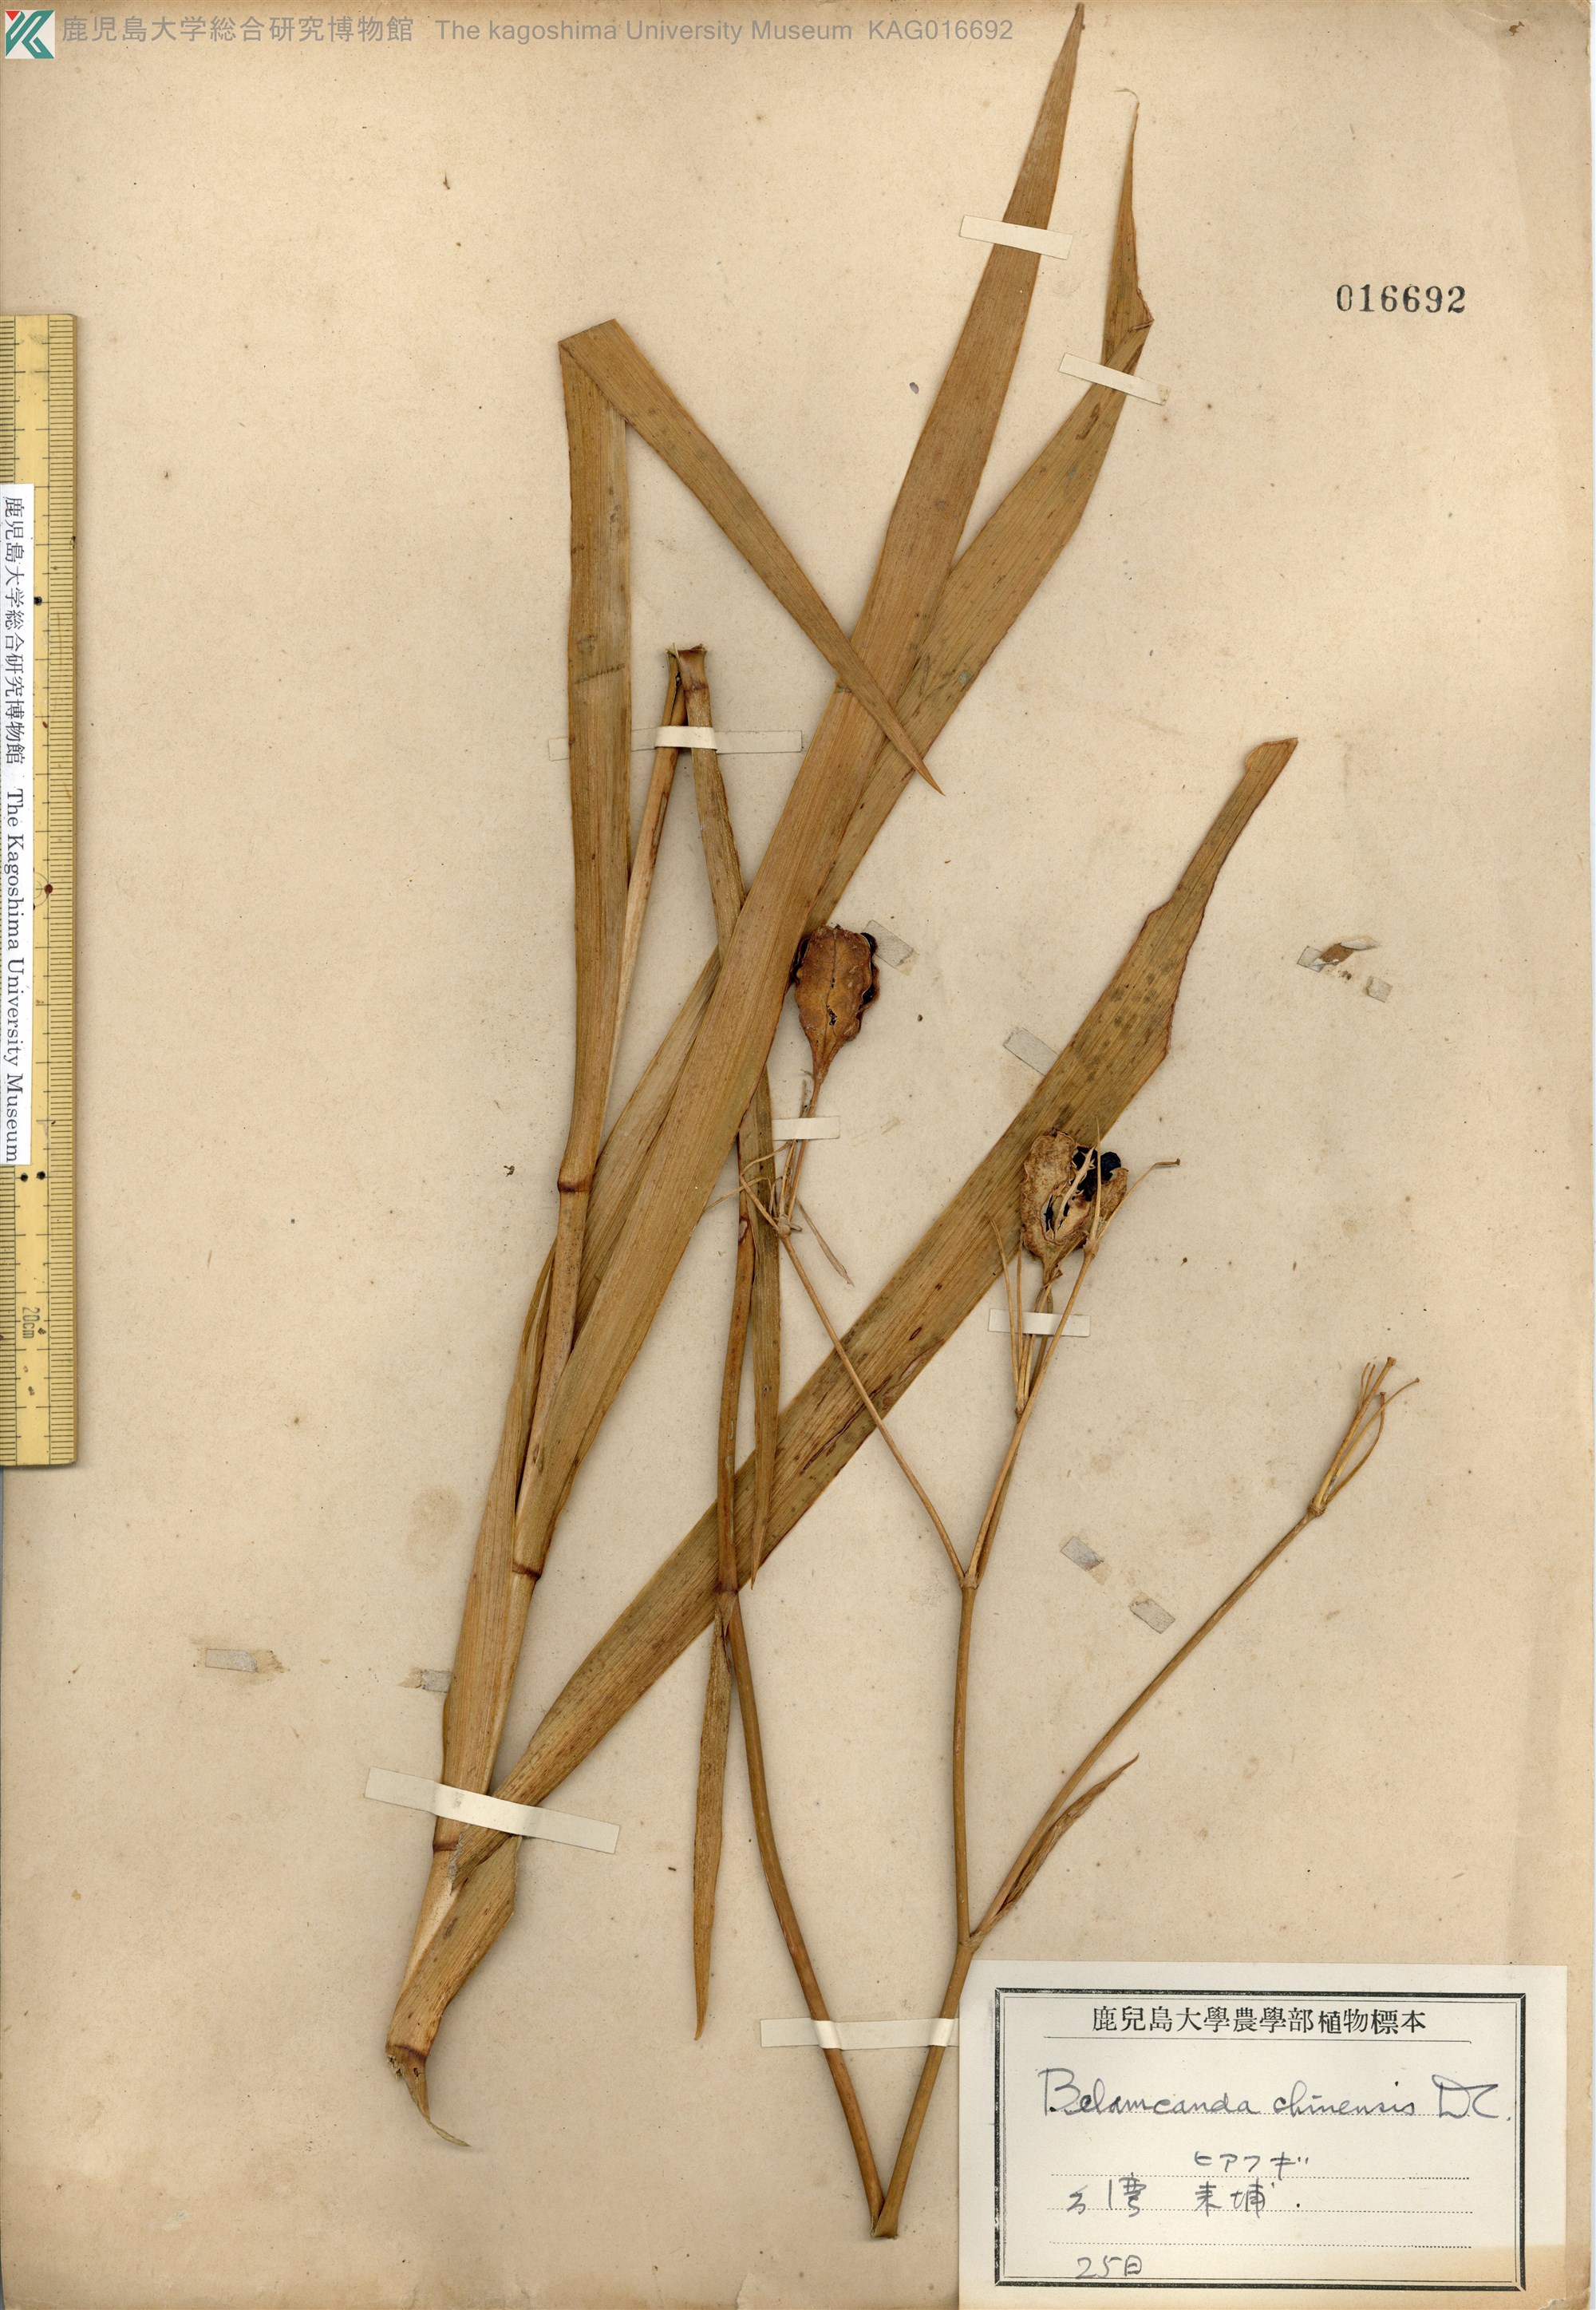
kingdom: Plantae
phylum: Tracheophyta
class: Liliopsida
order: Asparagales
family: Iridaceae
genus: Iris
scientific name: Iris domestica
